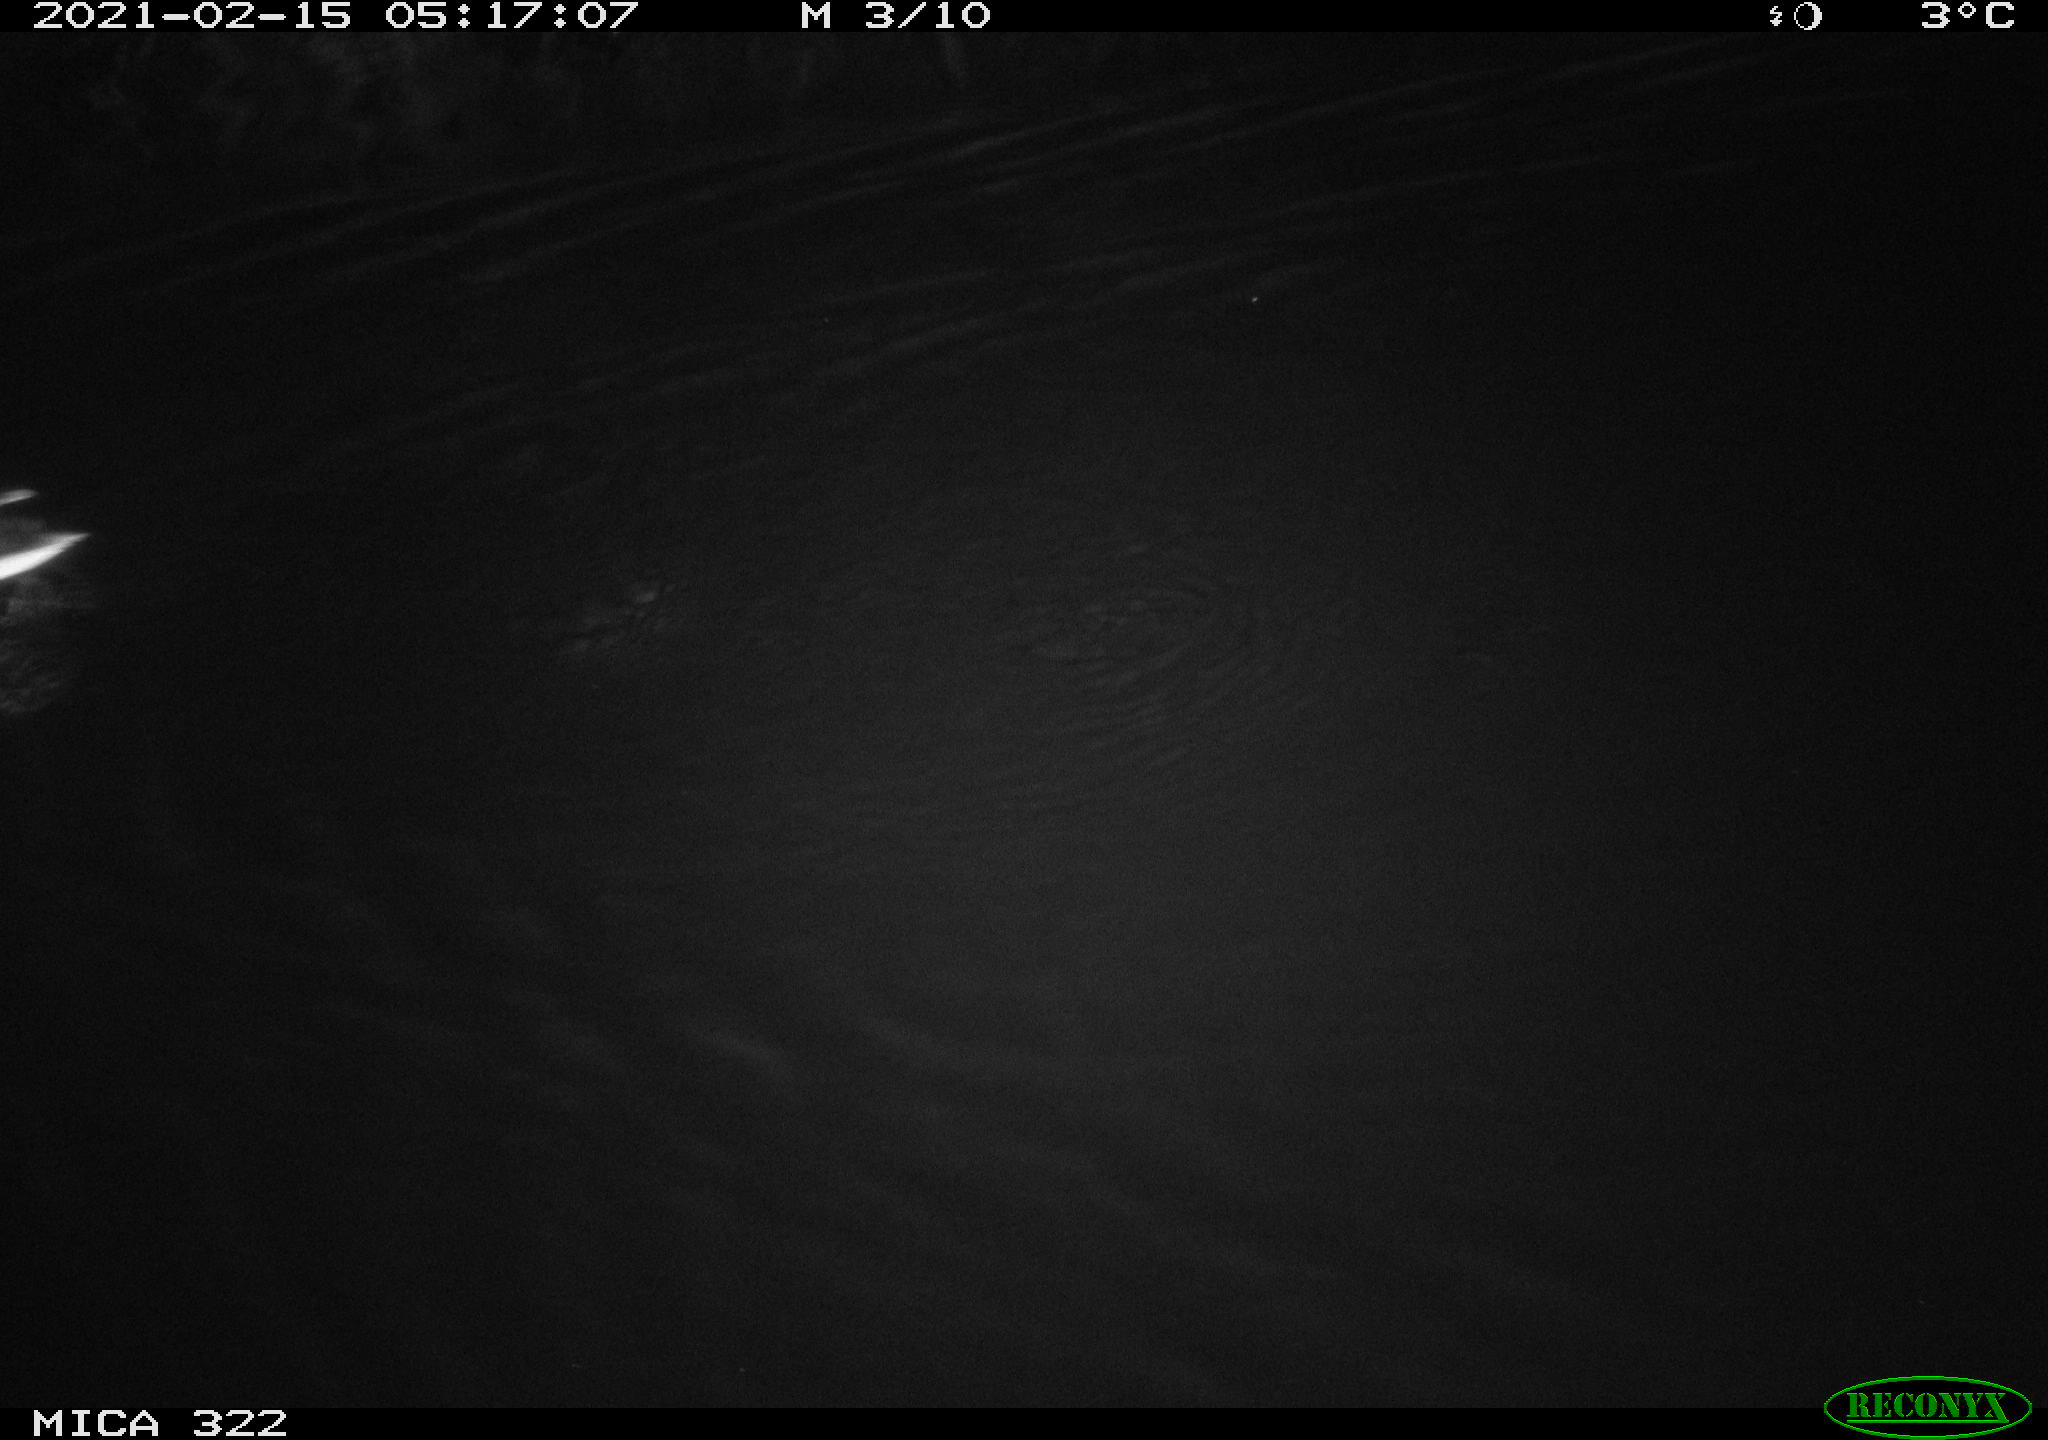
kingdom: Animalia
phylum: Chordata
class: Aves
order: Anseriformes
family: Anatidae
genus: Anas
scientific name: Anas platyrhynchos
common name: Mallard
